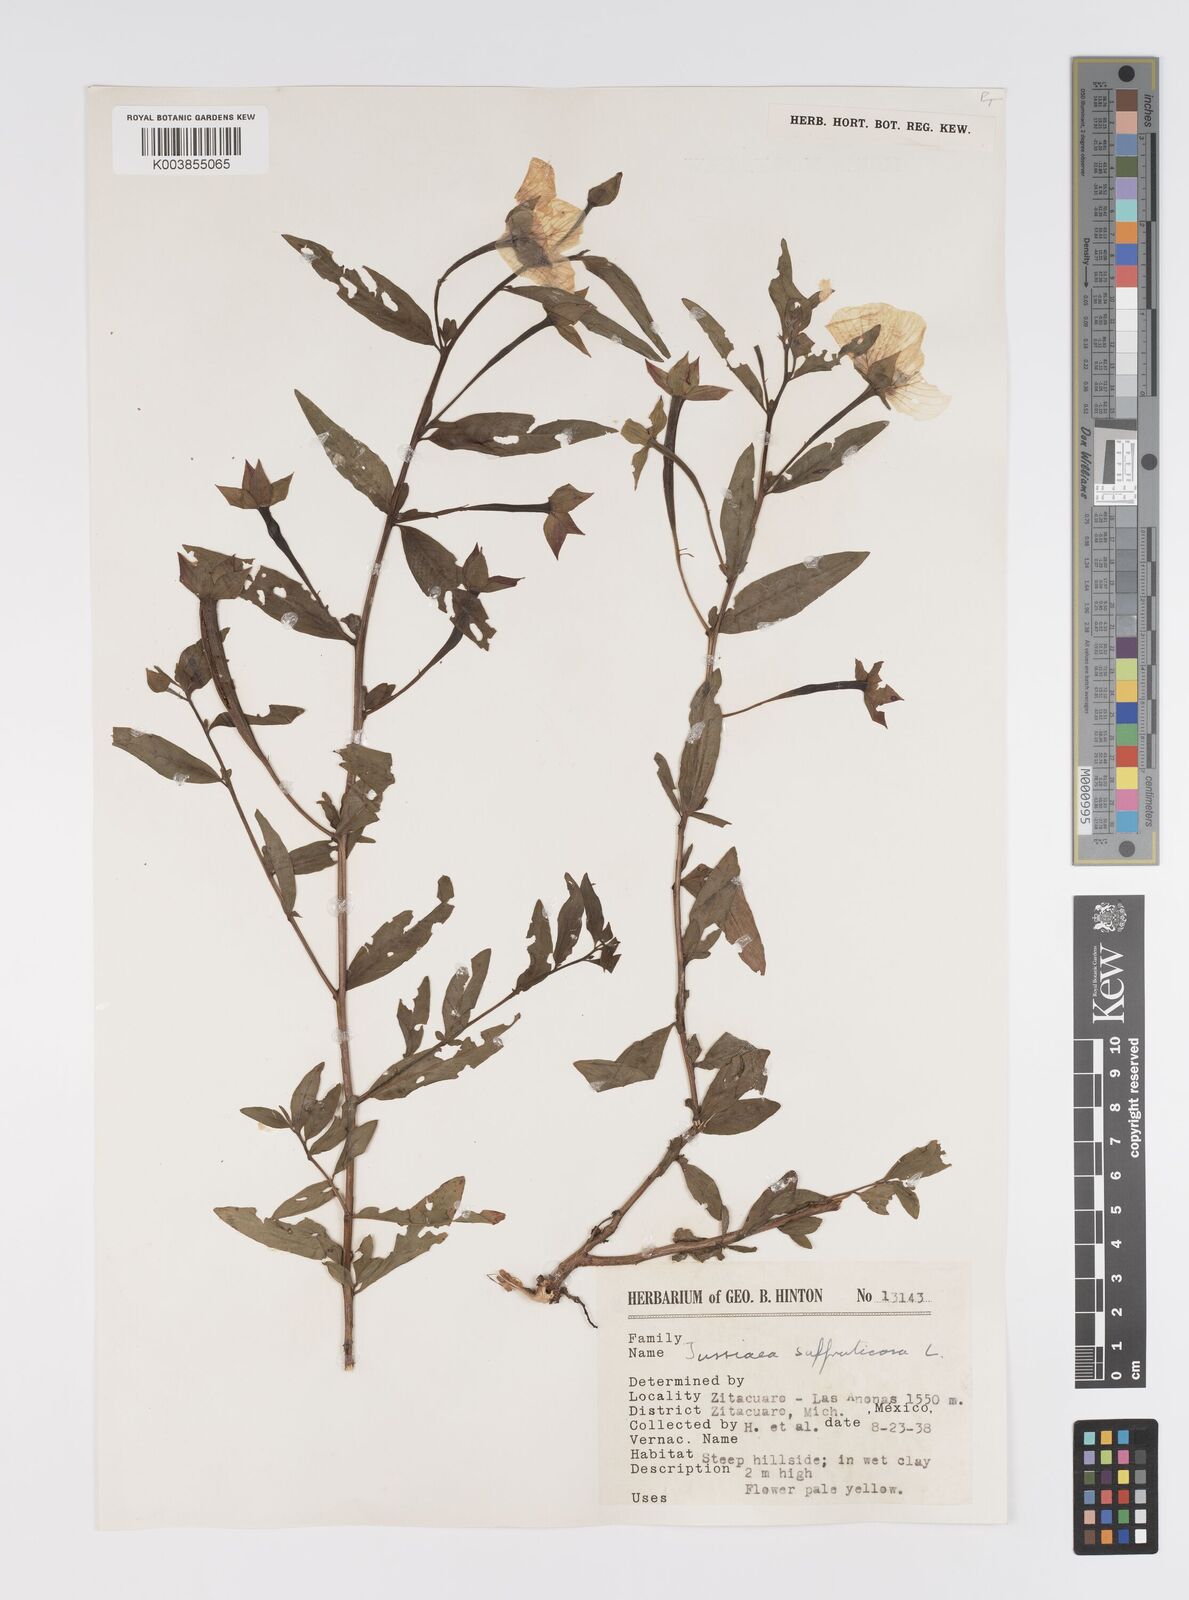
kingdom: Plantae
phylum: Tracheophyta
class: Magnoliopsida
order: Myrtales
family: Onagraceae
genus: Ludwigia
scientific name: Ludwigia octovalvis
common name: Water-primrose
